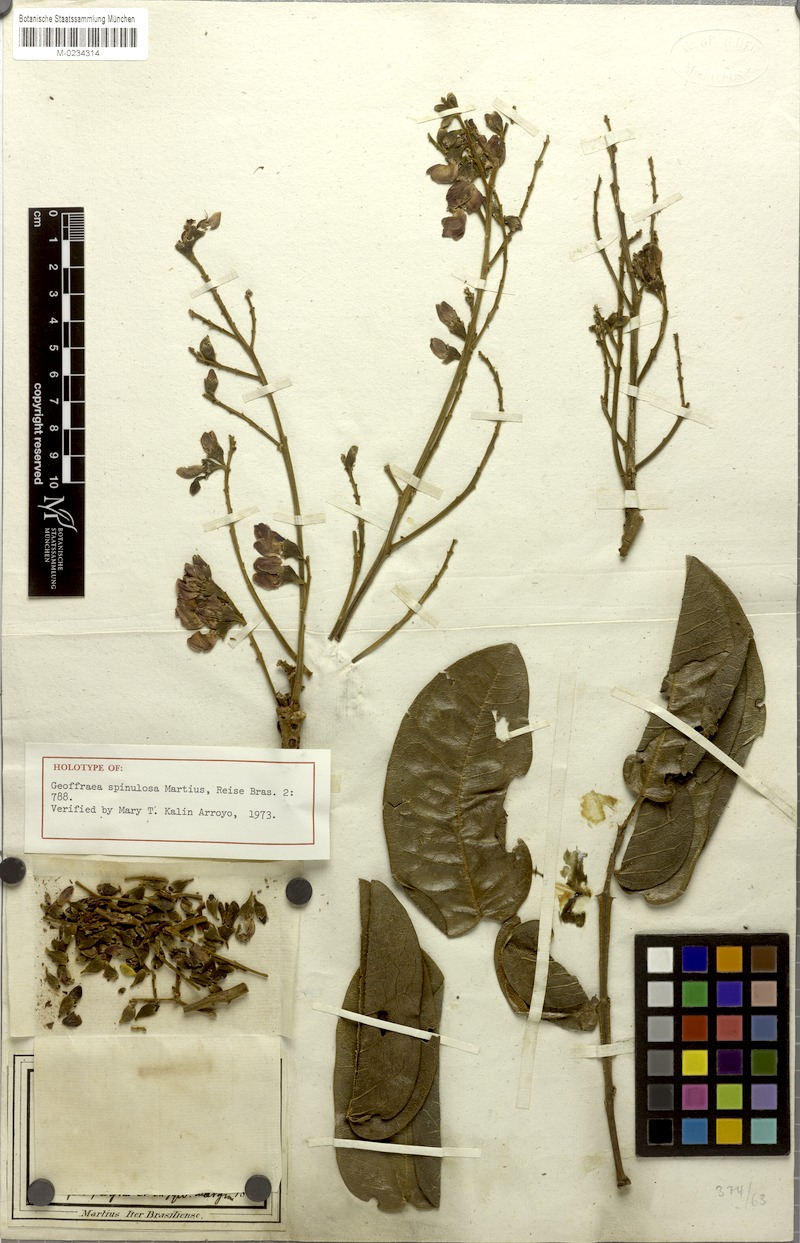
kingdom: Plantae
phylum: Tracheophyta
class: Magnoliopsida
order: Fabales
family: Fabaceae
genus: Andira
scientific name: Andira vermifuga
